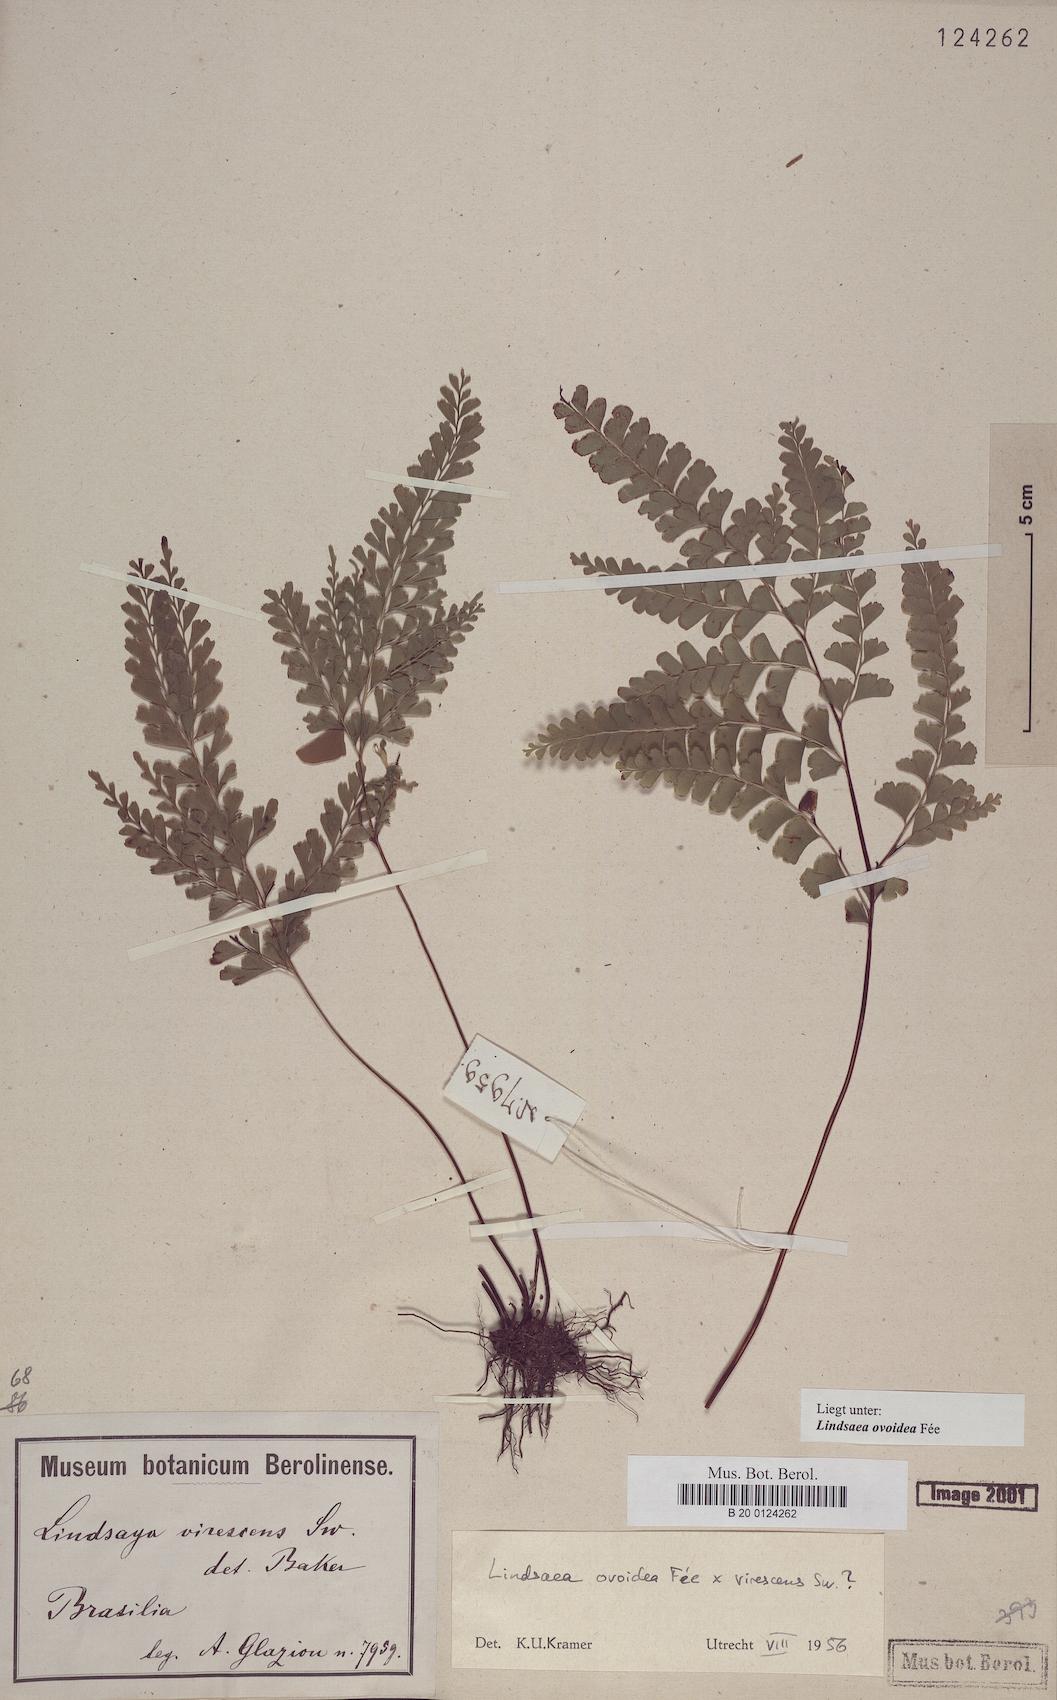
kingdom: Plantae
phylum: Tracheophyta
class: Polypodiopsida
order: Polypodiales
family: Lindsaeaceae
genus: Lindsaea
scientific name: Lindsaea ovoidea
